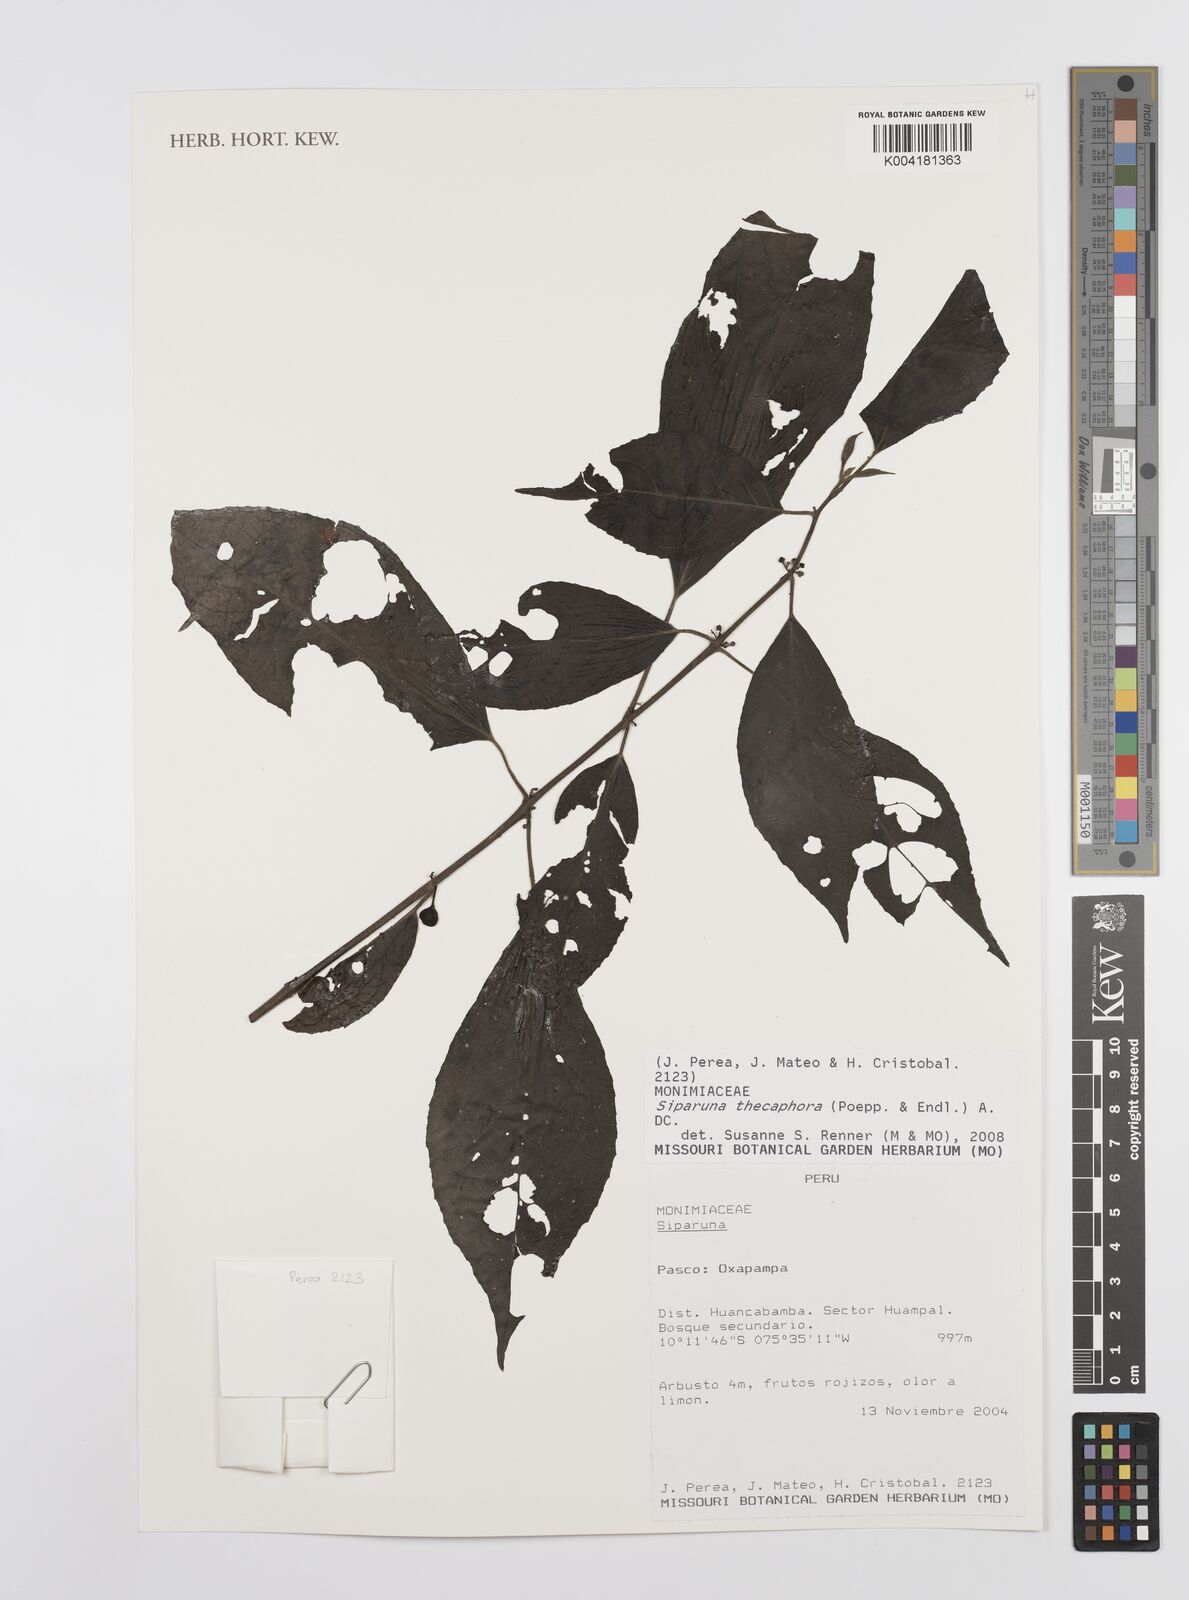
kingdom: Plantae
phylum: Tracheophyta
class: Magnoliopsida
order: Laurales
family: Siparunaceae
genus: Siparuna
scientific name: Siparuna thecaphora
